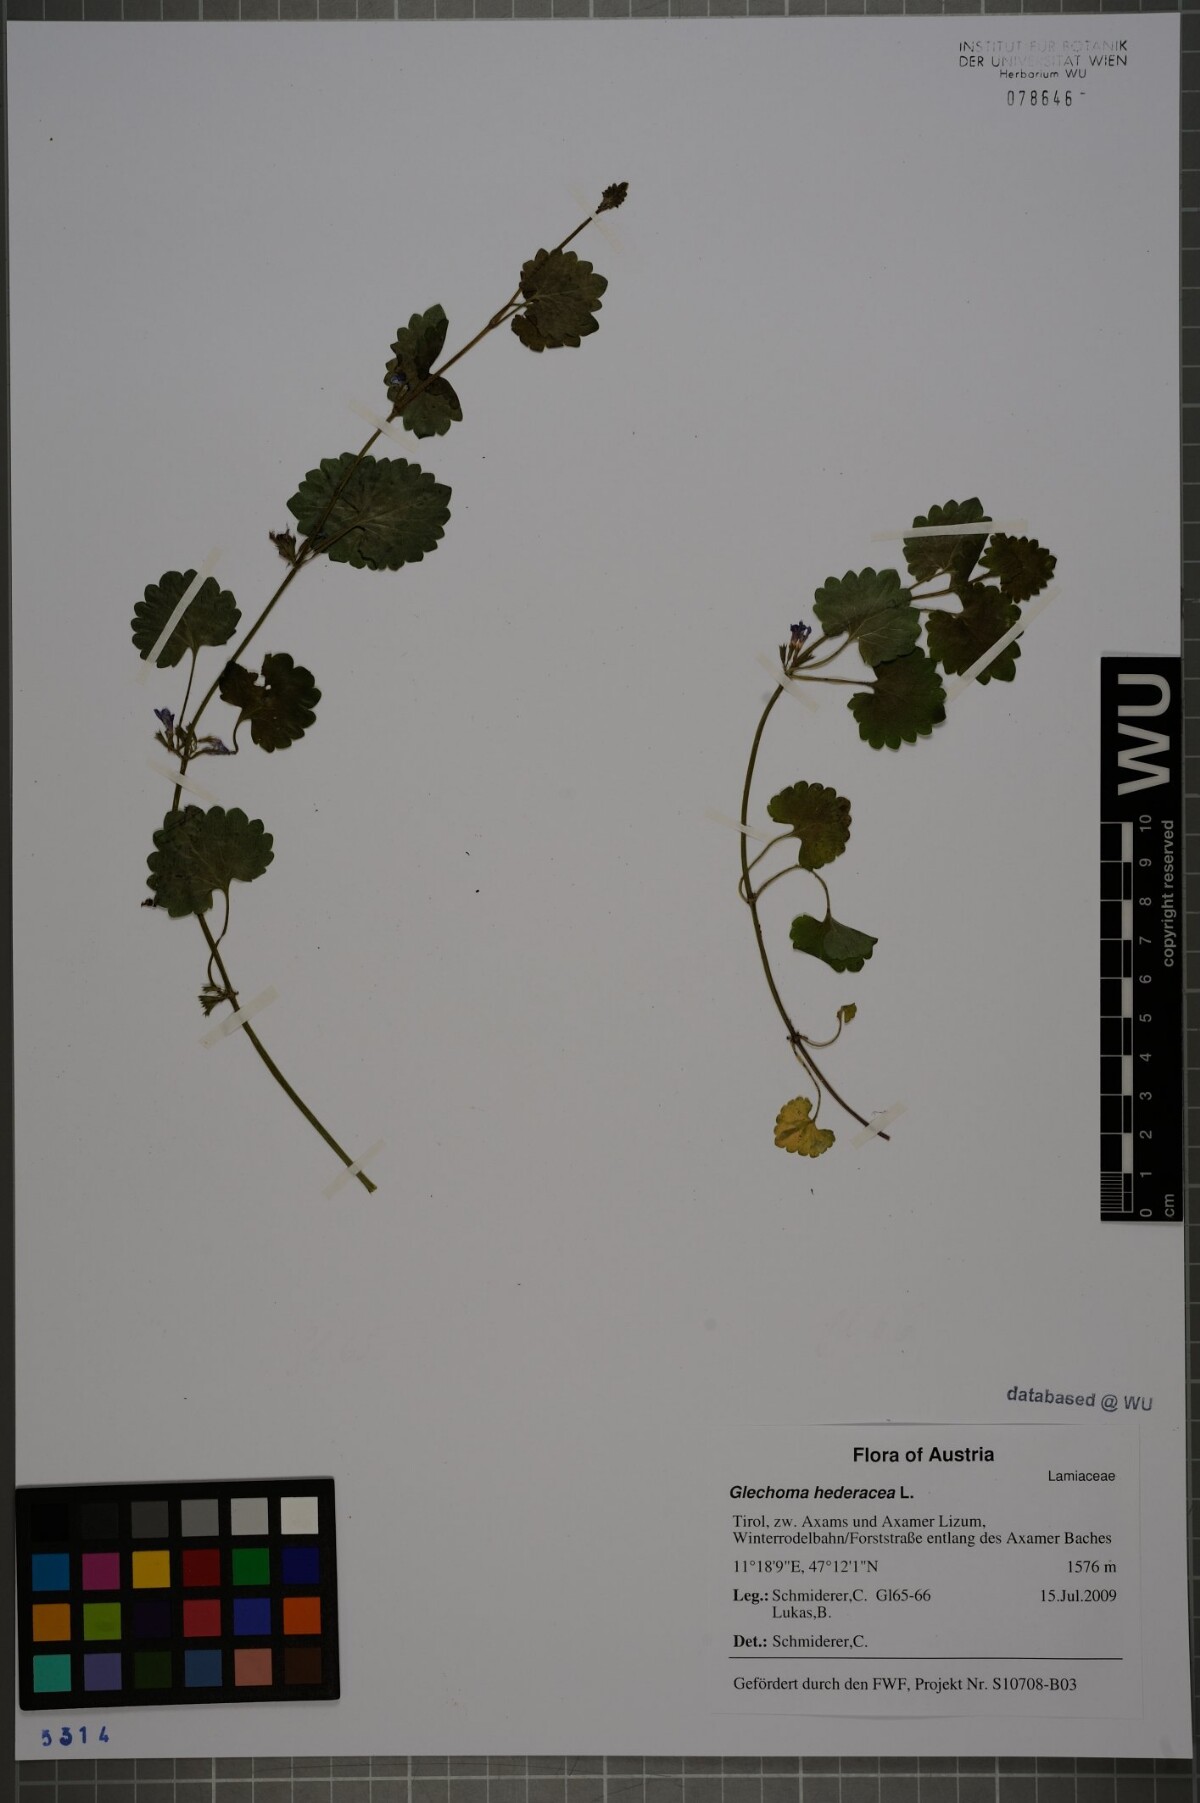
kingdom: Plantae
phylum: Tracheophyta
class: Magnoliopsida
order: Lamiales
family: Lamiaceae
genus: Glechoma
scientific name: Glechoma hederacea
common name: Ground ivy
